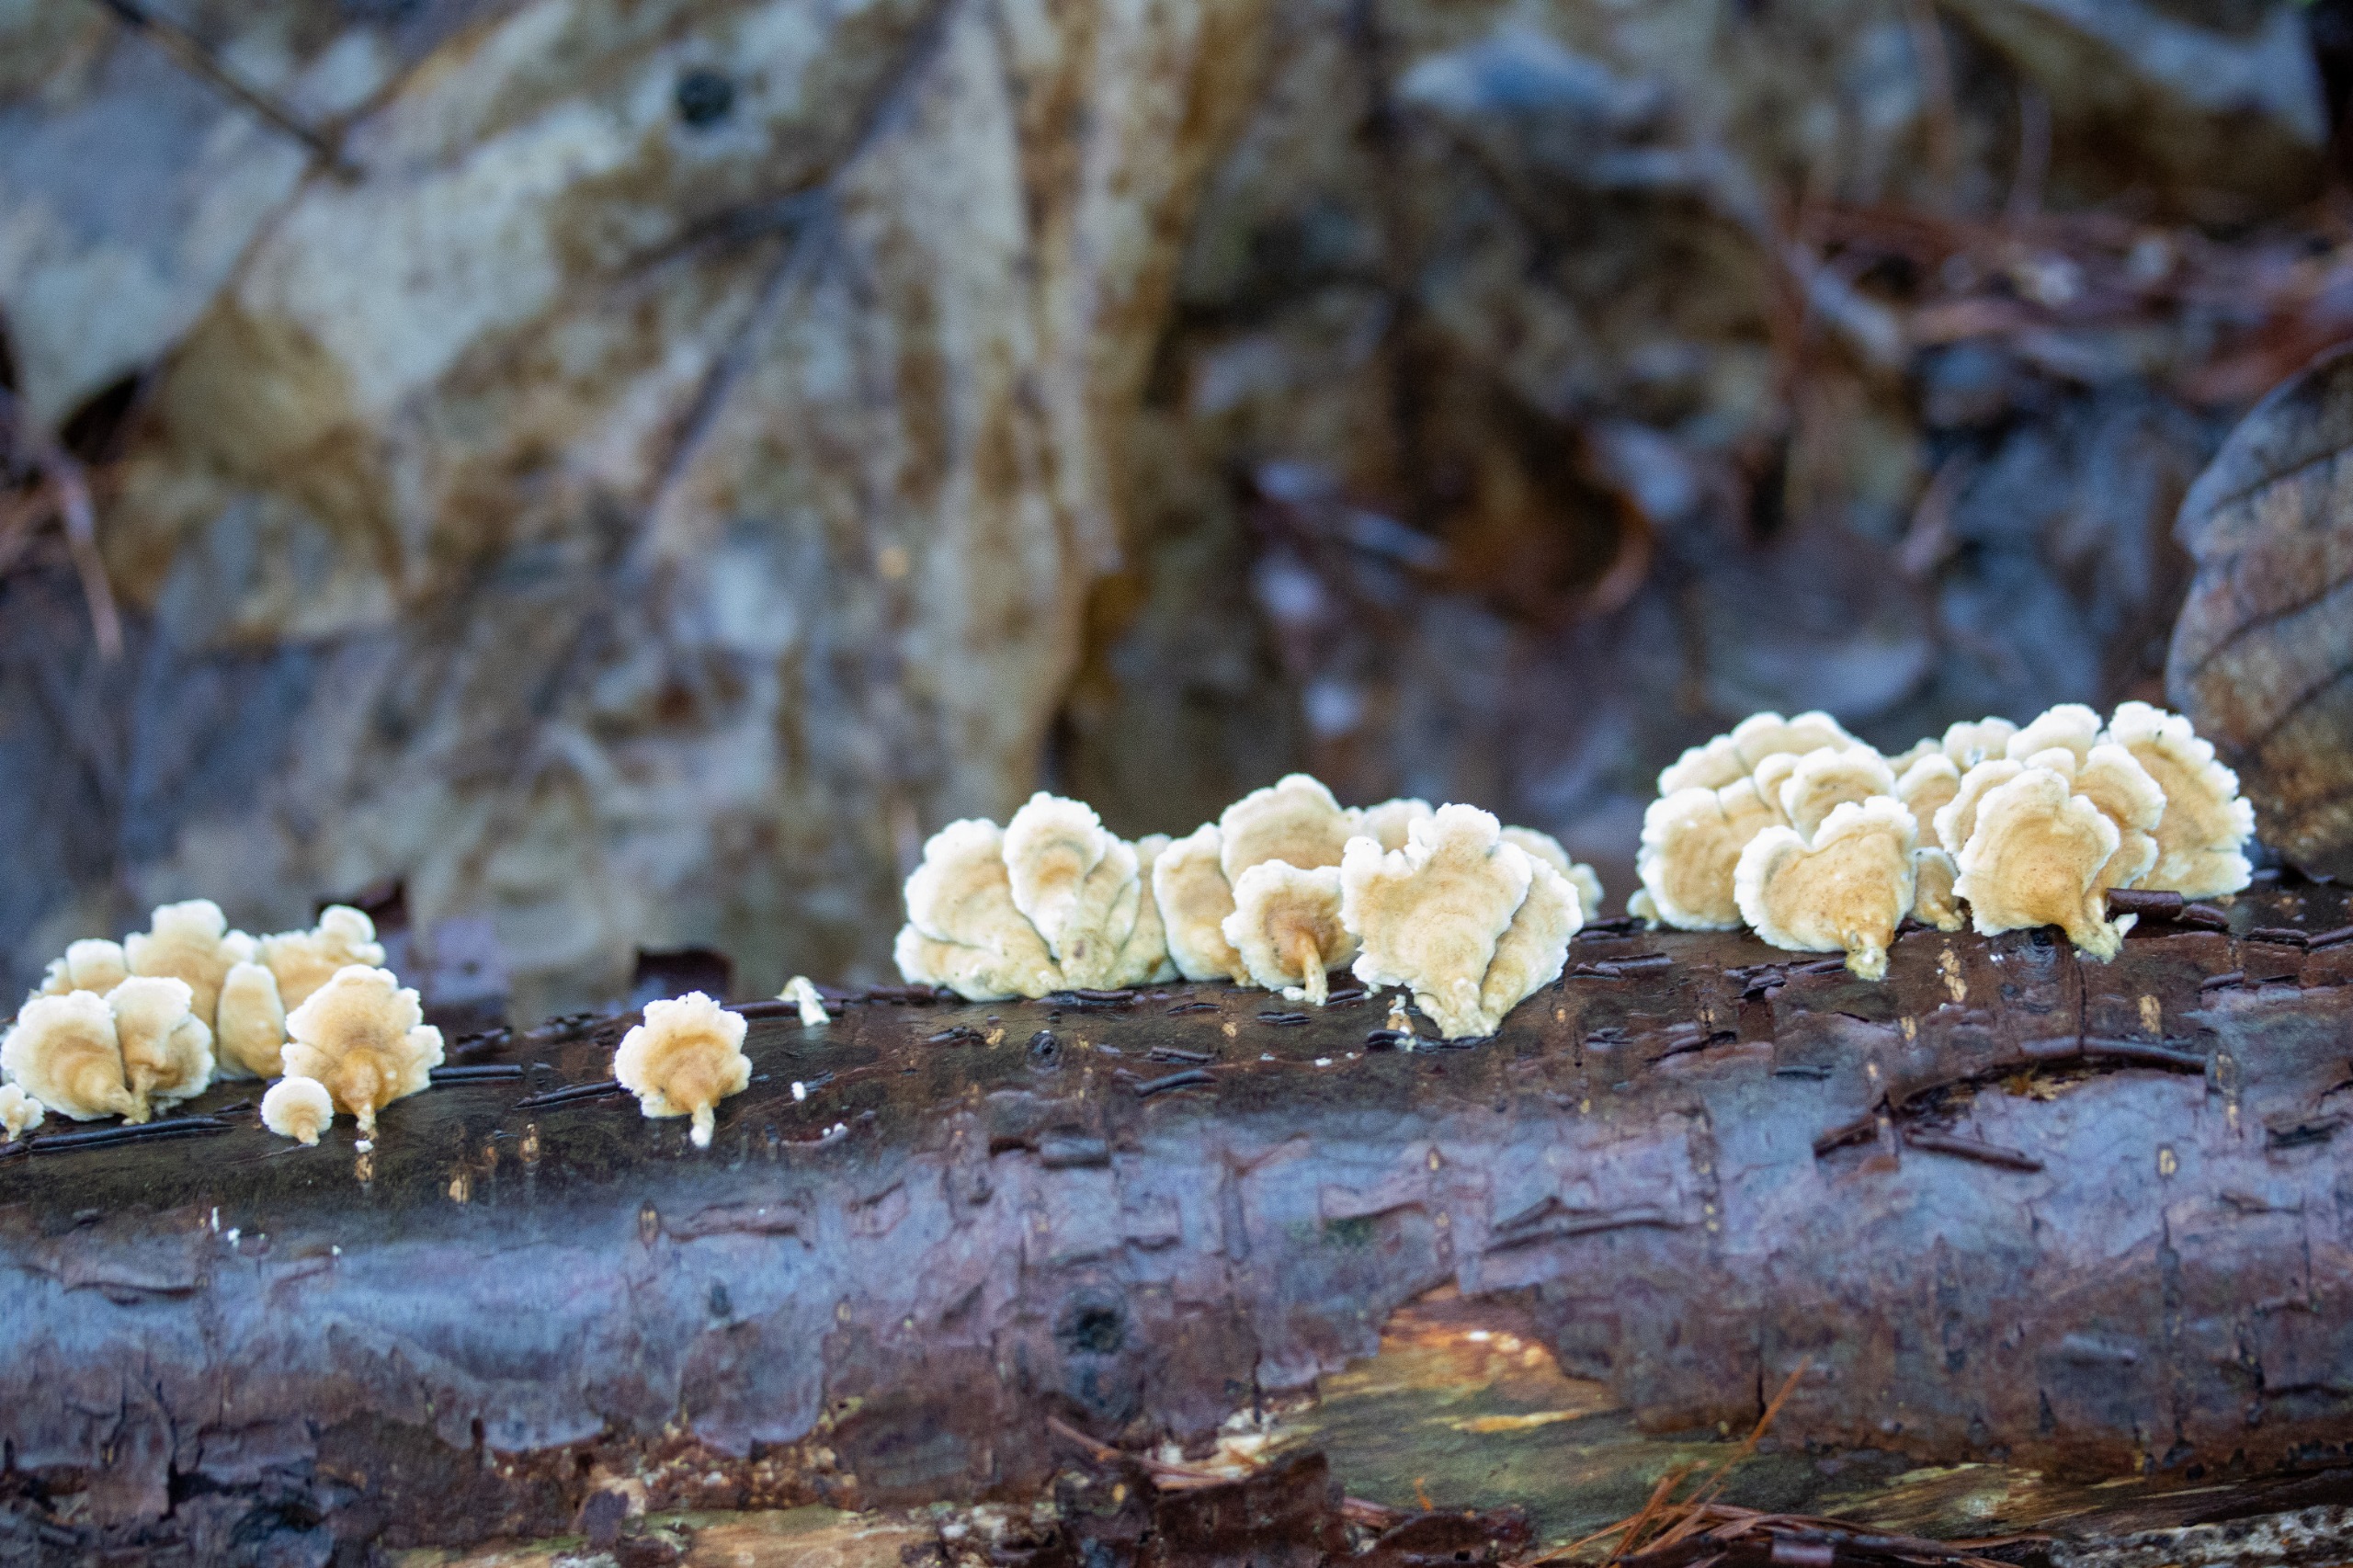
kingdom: Fungi
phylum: Basidiomycota
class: Agaricomycetes
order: Amylocorticiales
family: Amylocorticiaceae
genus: Plicaturopsis
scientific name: Plicaturopsis crispa
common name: Krusblad
